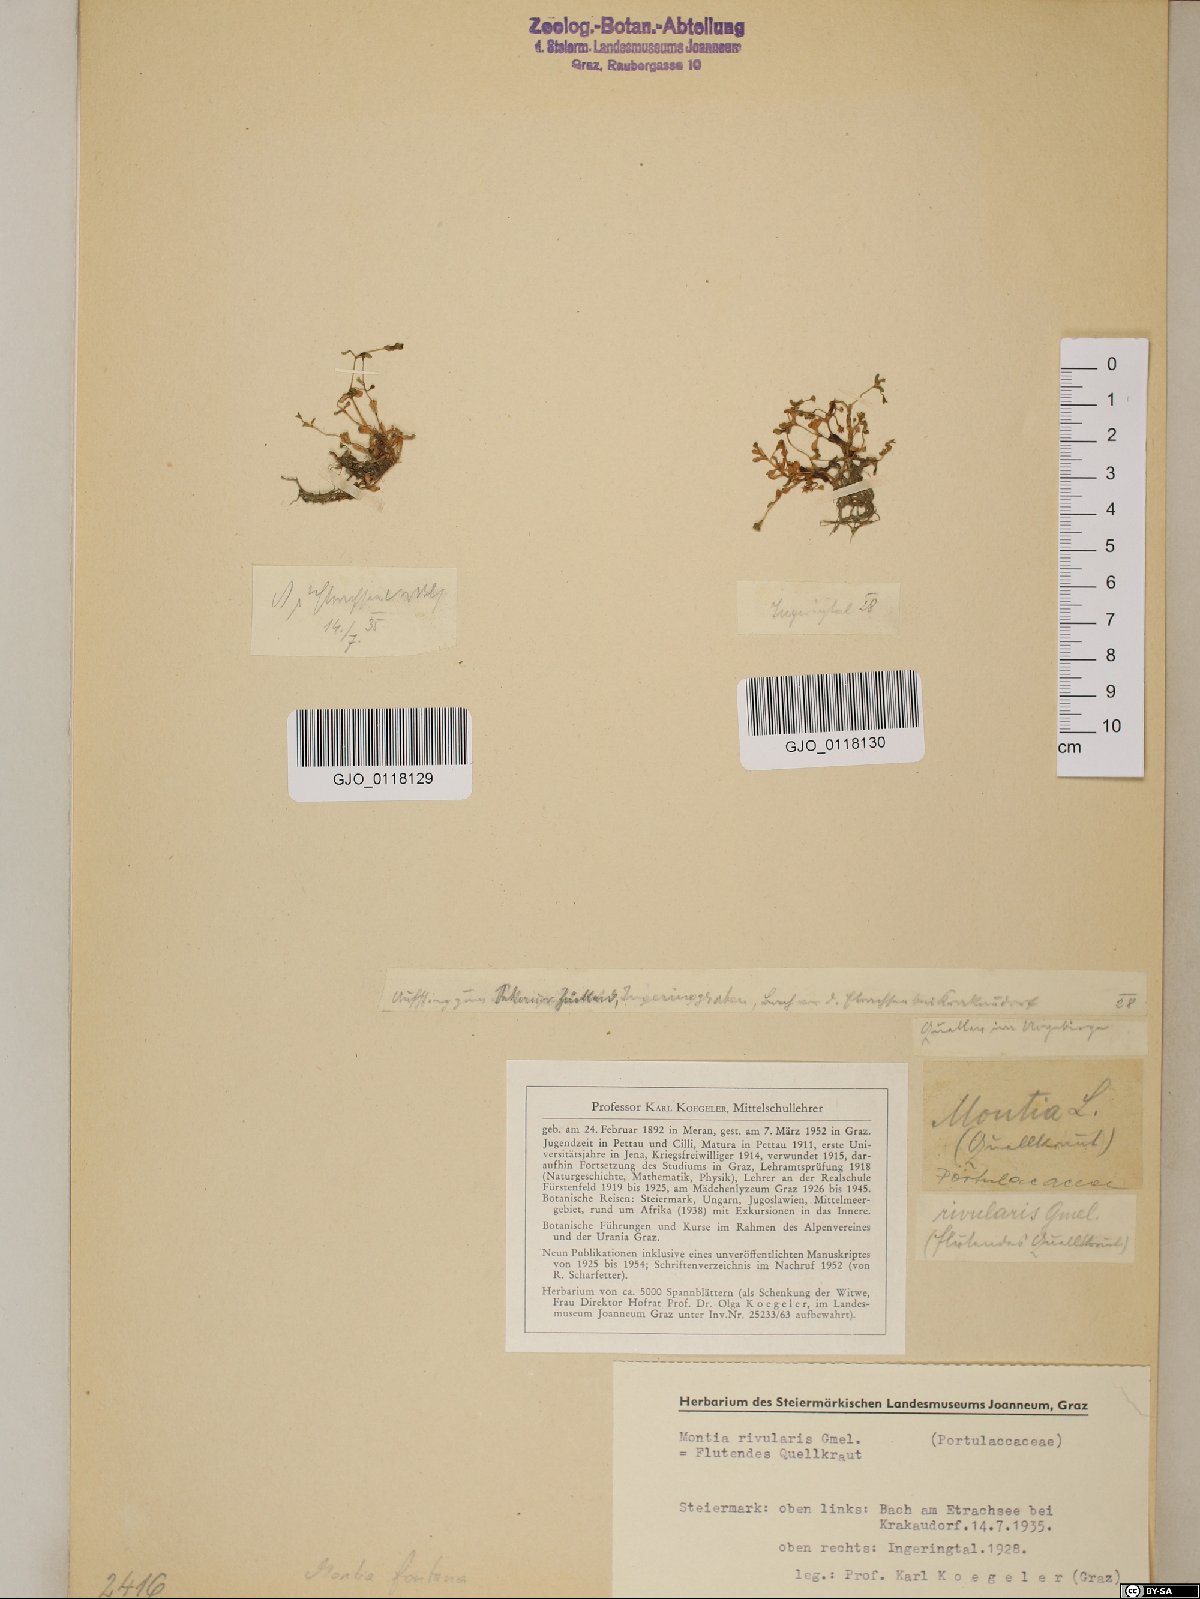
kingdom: Plantae
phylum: Tracheophyta
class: Magnoliopsida
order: Caryophyllales
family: Montiaceae
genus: Montia
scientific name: Montia fontana
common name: Blinks
